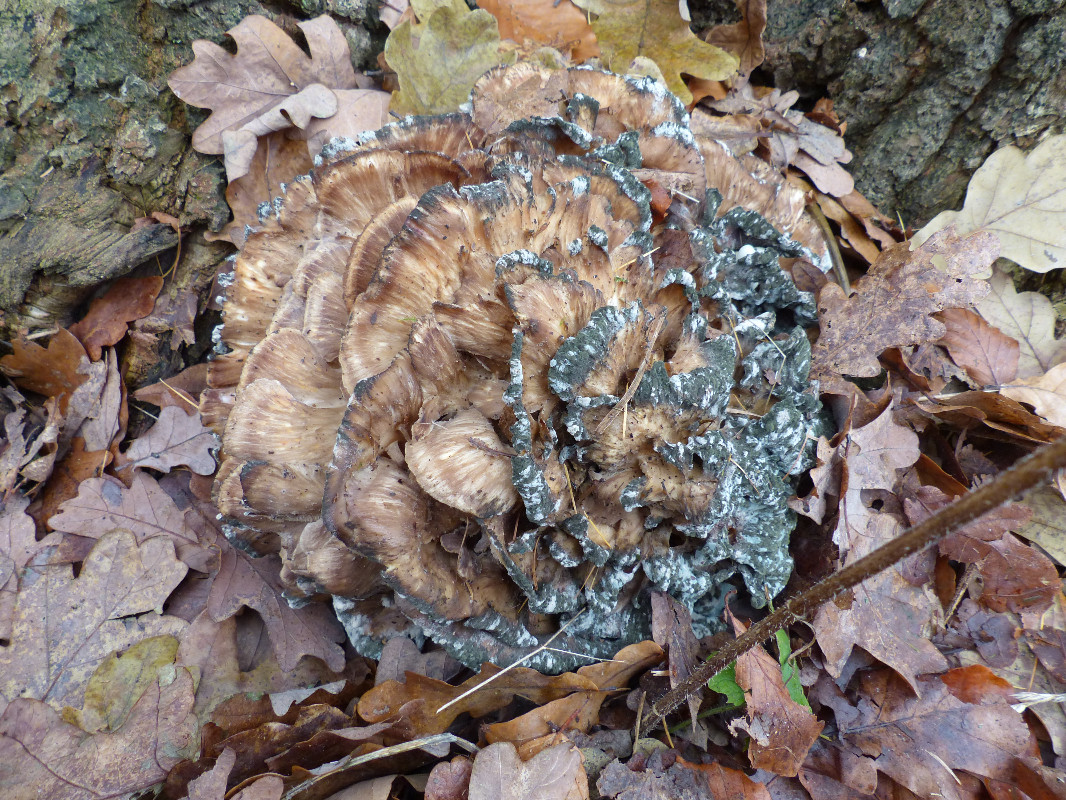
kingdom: Fungi
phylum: Basidiomycota
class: Agaricomycetes
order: Polyporales
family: Grifolaceae
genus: Grifola
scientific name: Grifola frondosa
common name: tueporesvamp
